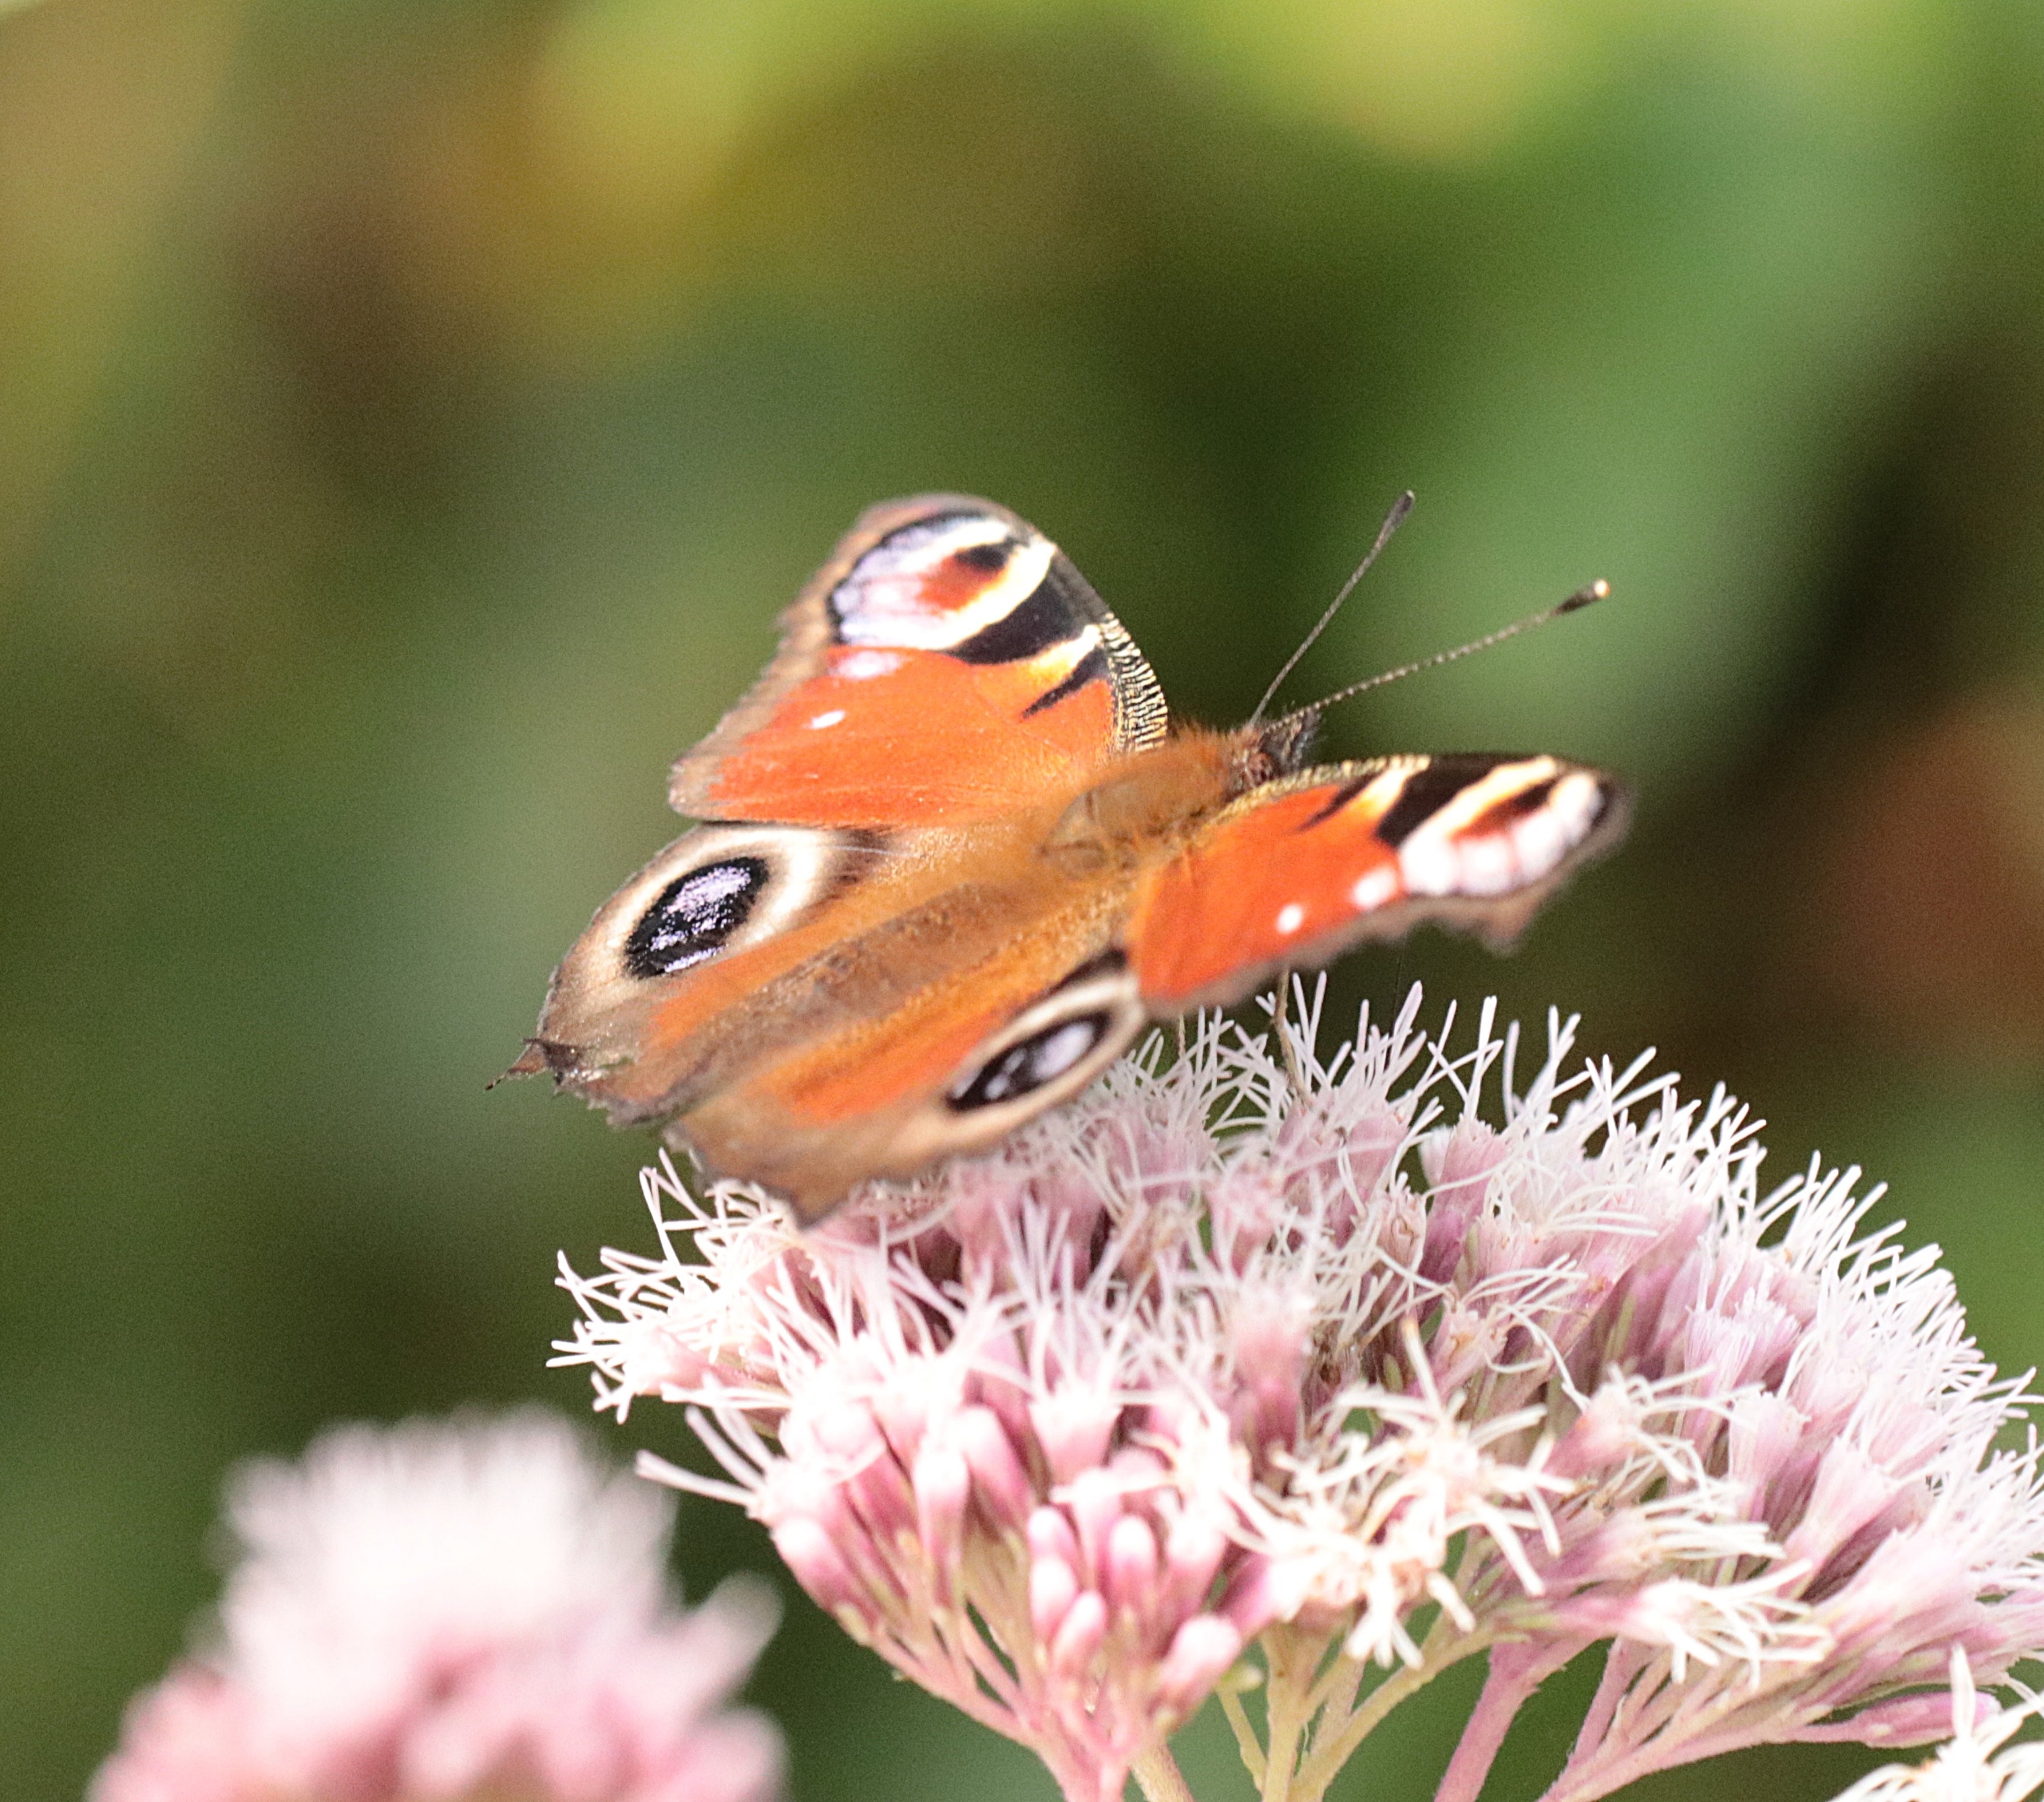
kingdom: Animalia
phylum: Arthropoda
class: Insecta
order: Lepidoptera
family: Nymphalidae
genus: Aglais
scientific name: Aglais io
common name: Dagpåfugleøje
